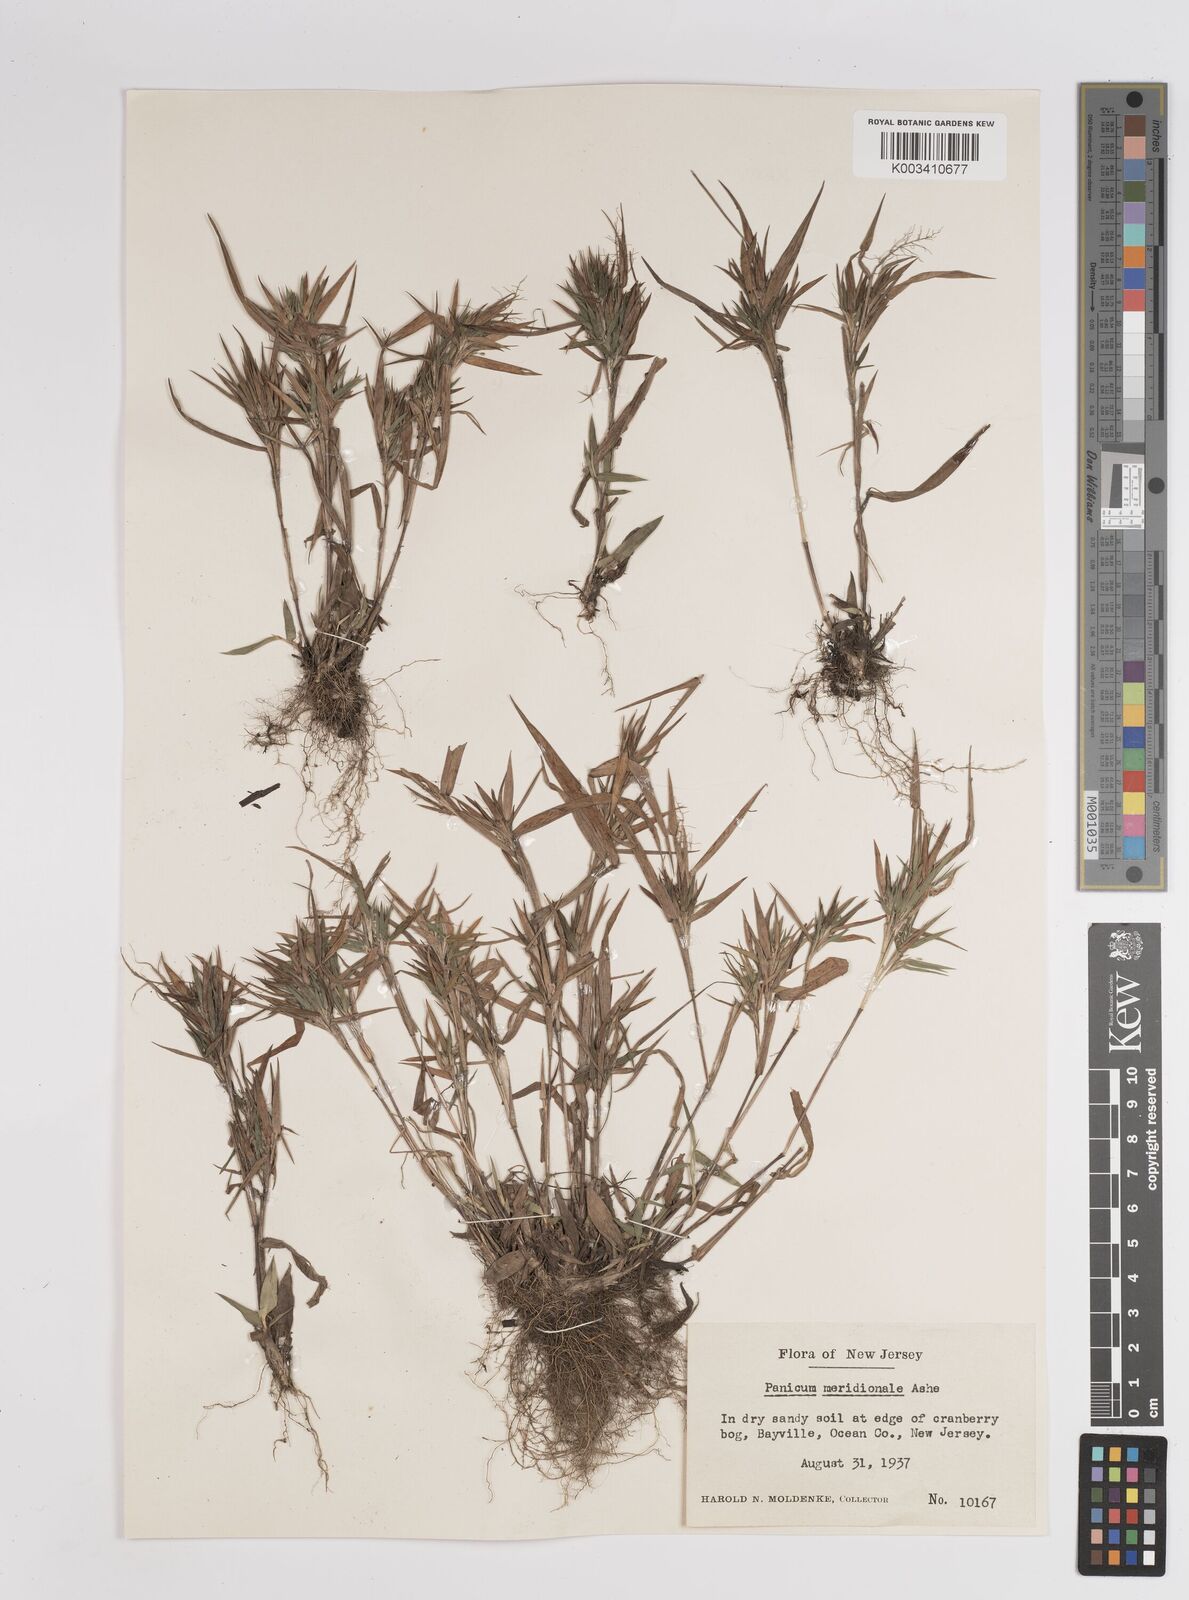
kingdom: Plantae
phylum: Tracheophyta
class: Liliopsida
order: Poales
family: Poaceae
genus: Dichanthelium
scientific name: Dichanthelium meridionale
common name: Mat panicgrass
